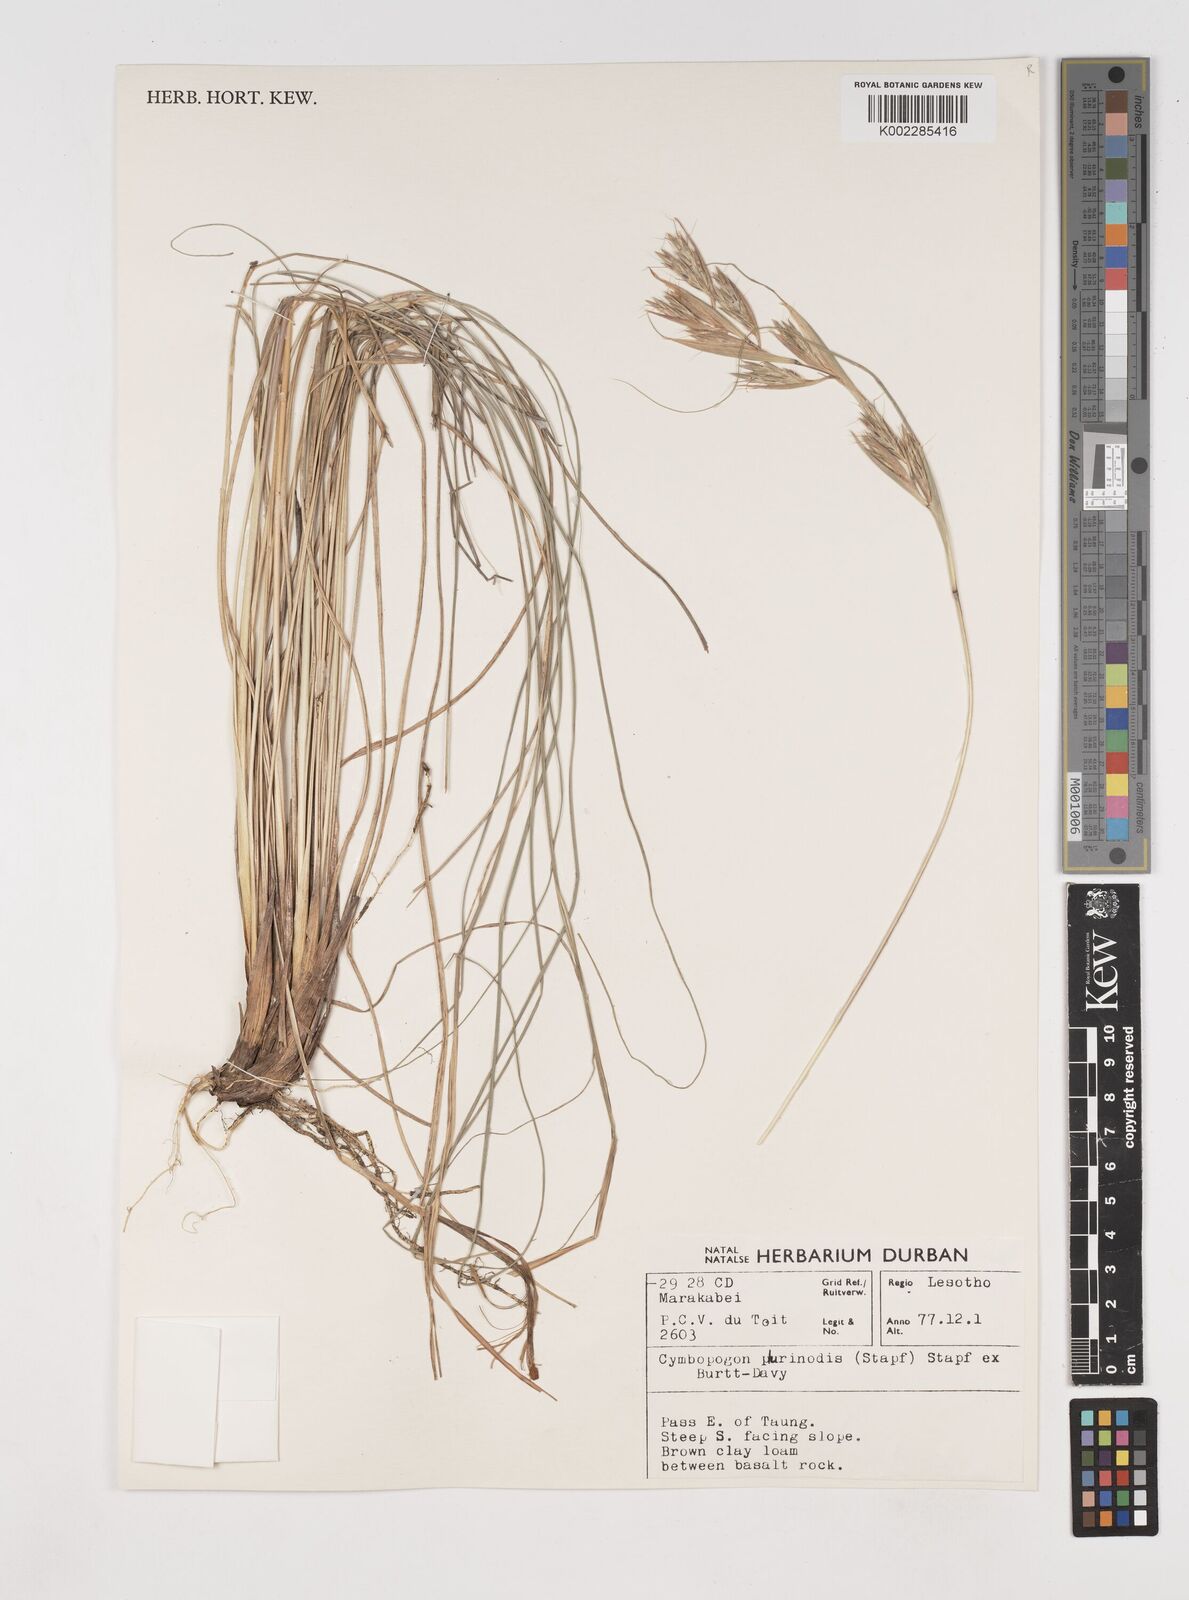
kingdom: Plantae
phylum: Tracheophyta
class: Liliopsida
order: Poales
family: Poaceae
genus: Cymbopogon
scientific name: Cymbopogon
